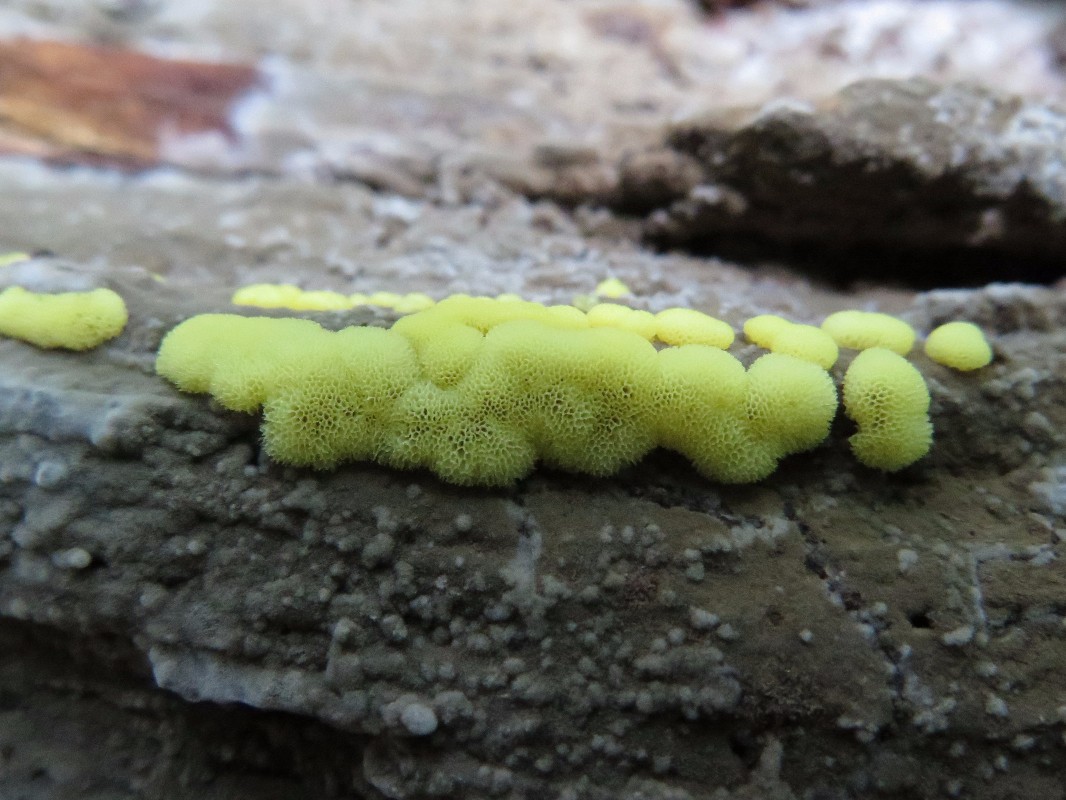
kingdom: Protozoa
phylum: Mycetozoa
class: Protosteliomycetes
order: Ceratiomyxales
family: Ceratiomyxaceae
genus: Ceratiomyxa
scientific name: Ceratiomyxa fruticulosa
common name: Honeycomb coral slime mold
